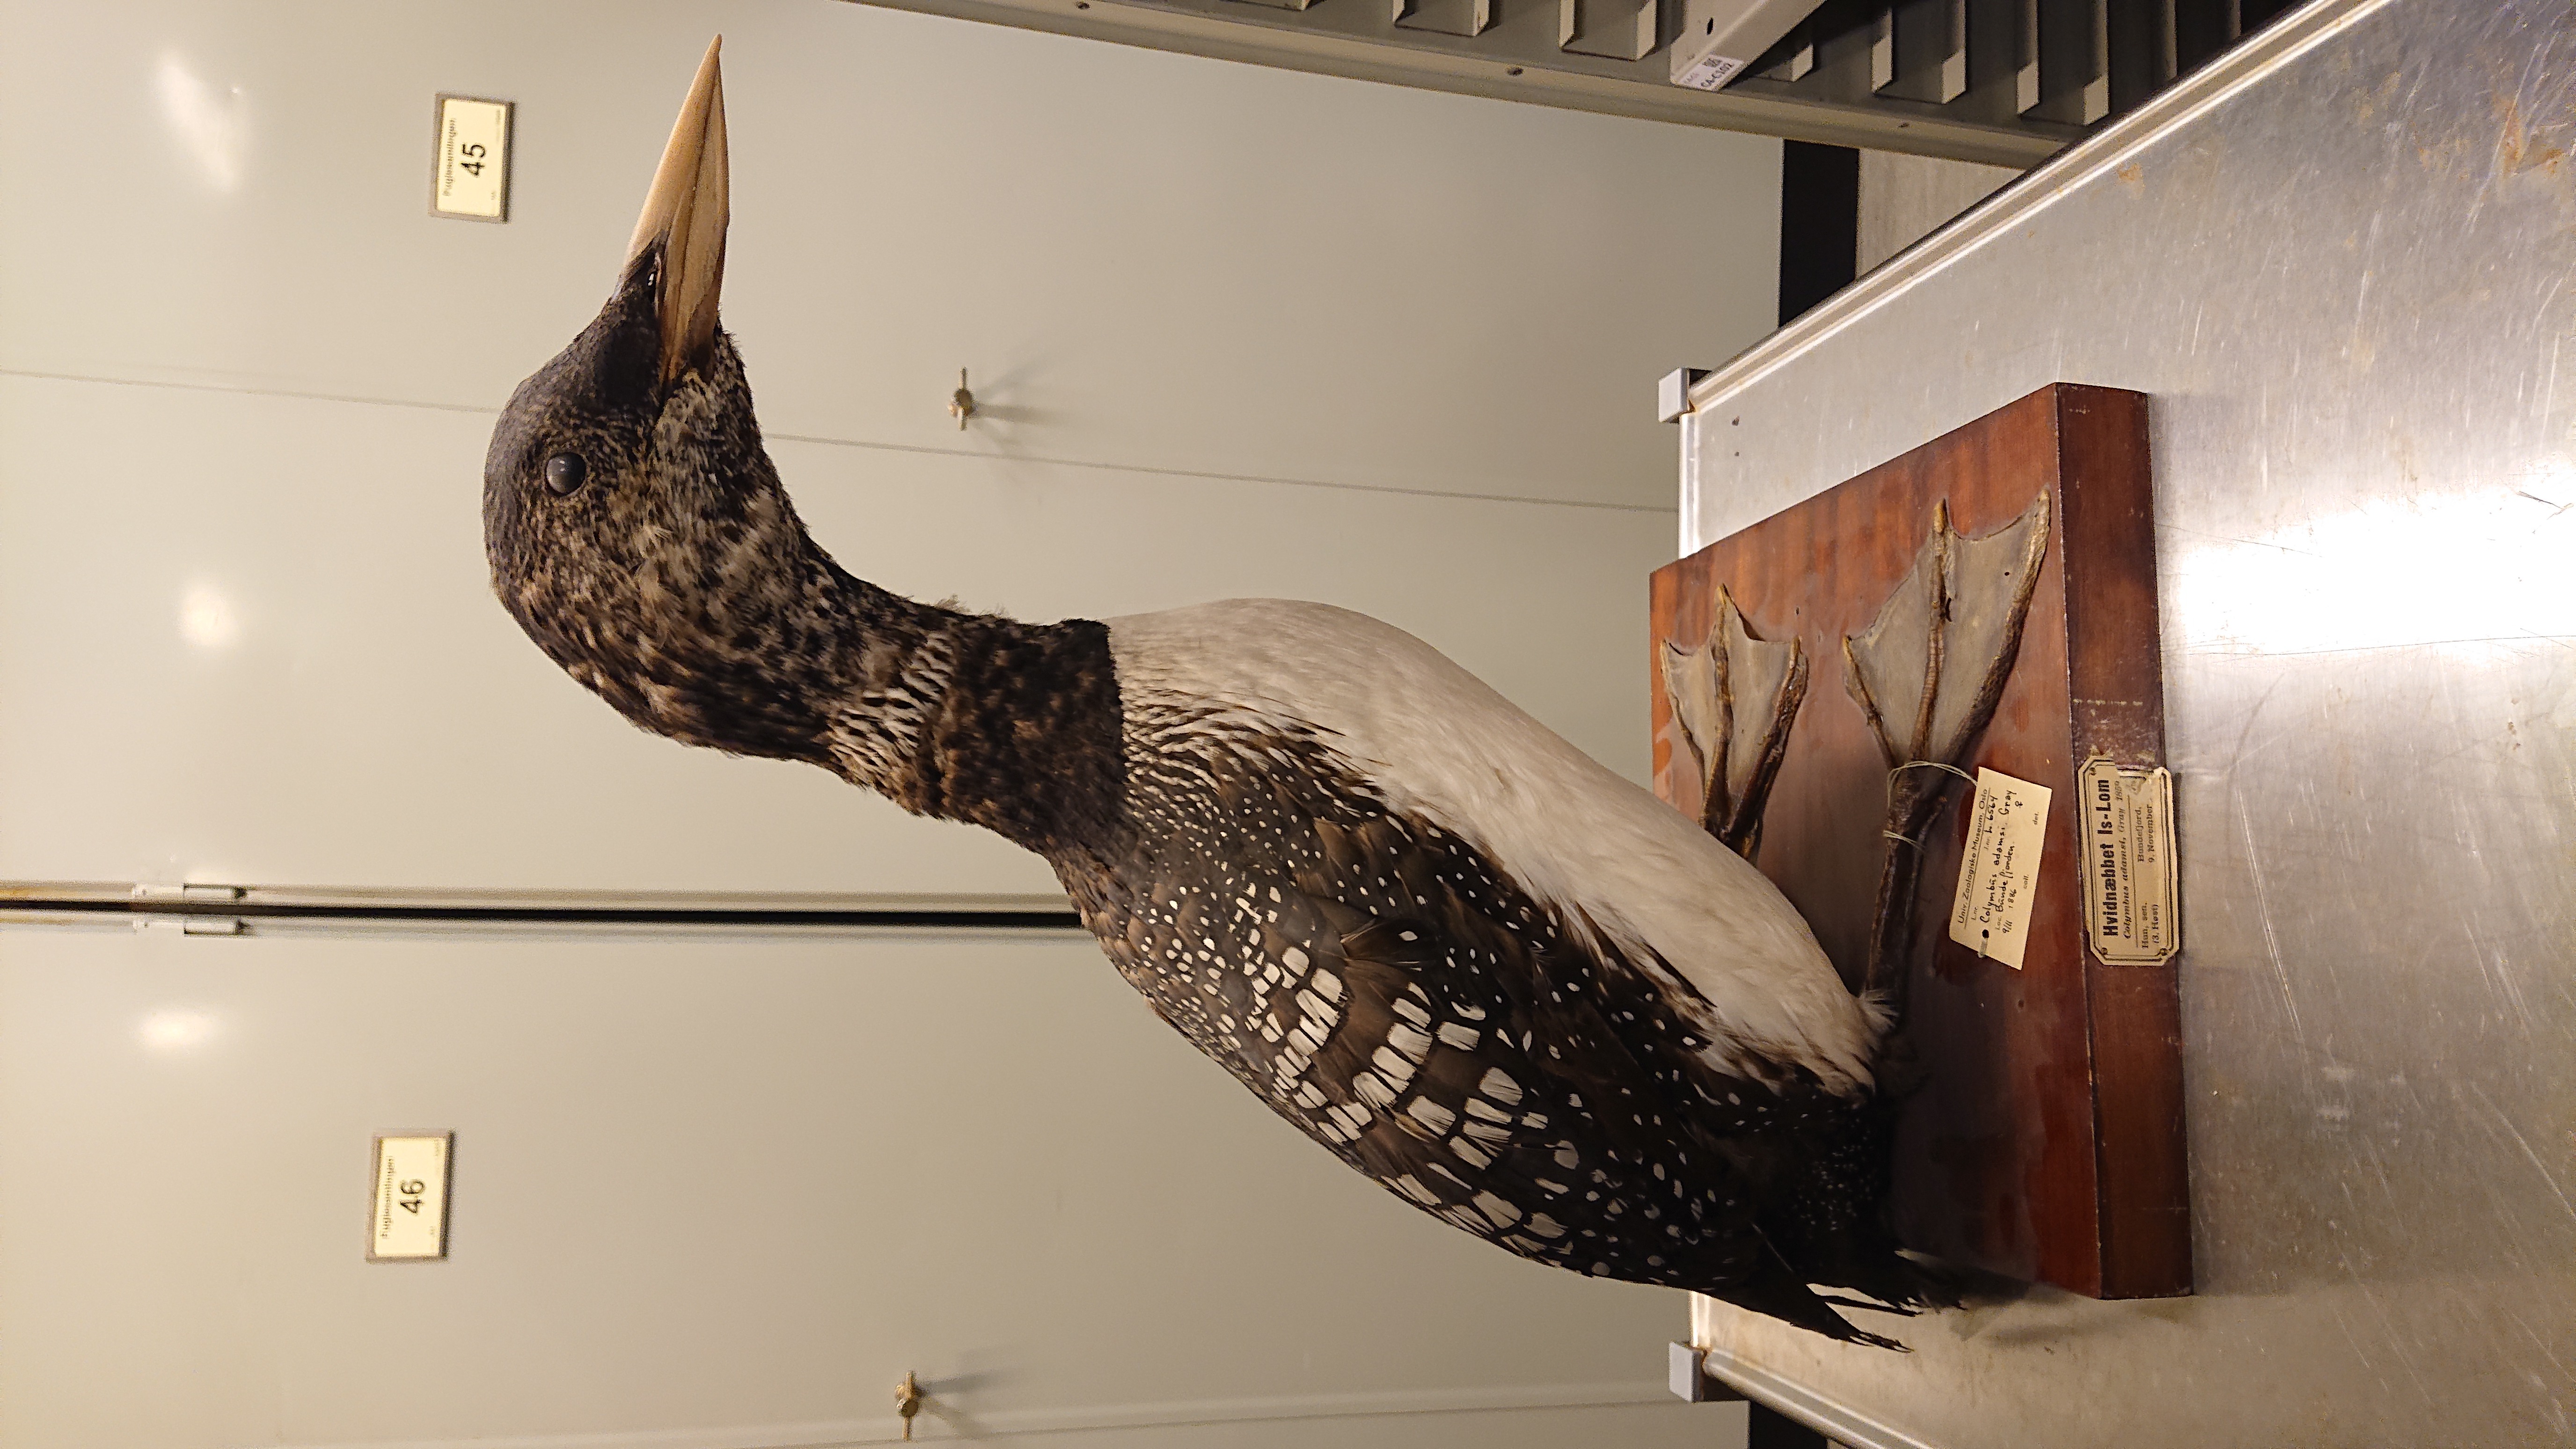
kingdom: Animalia
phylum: Chordata
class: Aves
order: Gaviiformes
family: Gaviidae
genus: Gavia
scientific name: Gavia adamsii
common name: Yellow-billed loon
